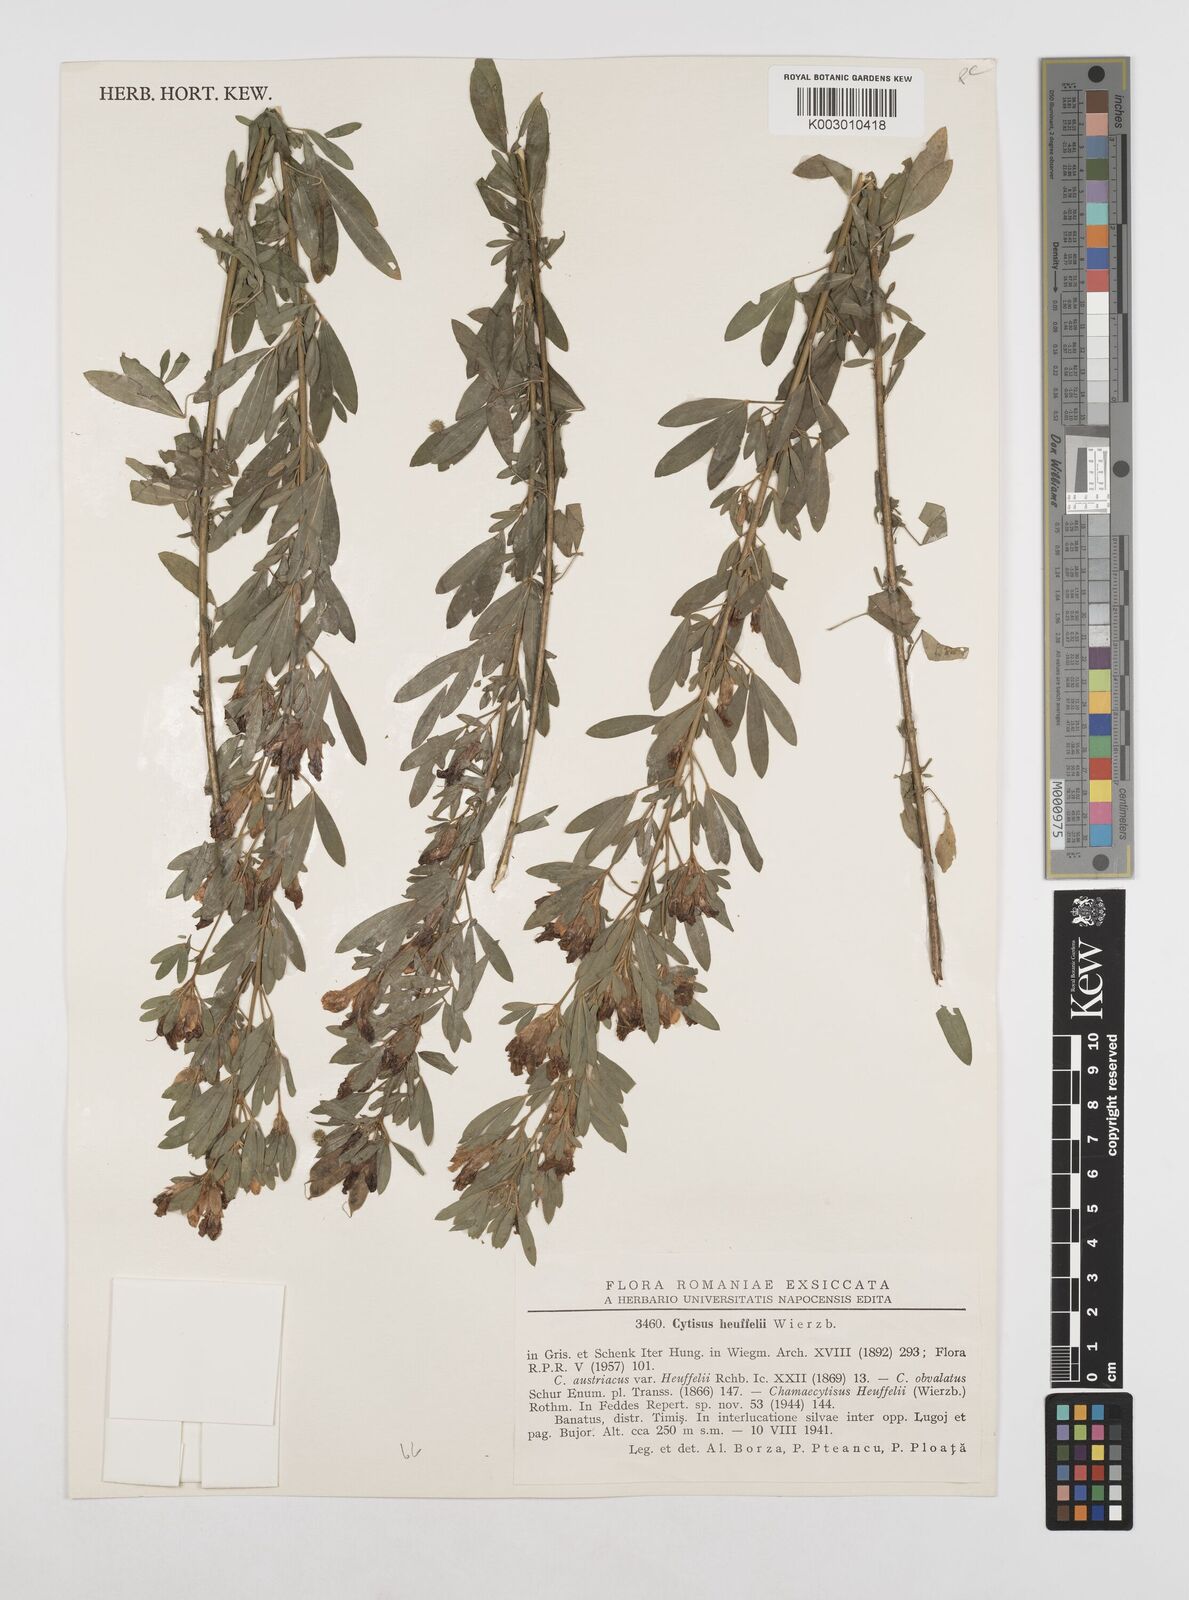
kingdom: Plantae
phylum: Tracheophyta
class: Magnoliopsida
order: Fabales
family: Fabaceae
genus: Cytisophyllum
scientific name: Cytisophyllum Cytisus heuffelii
